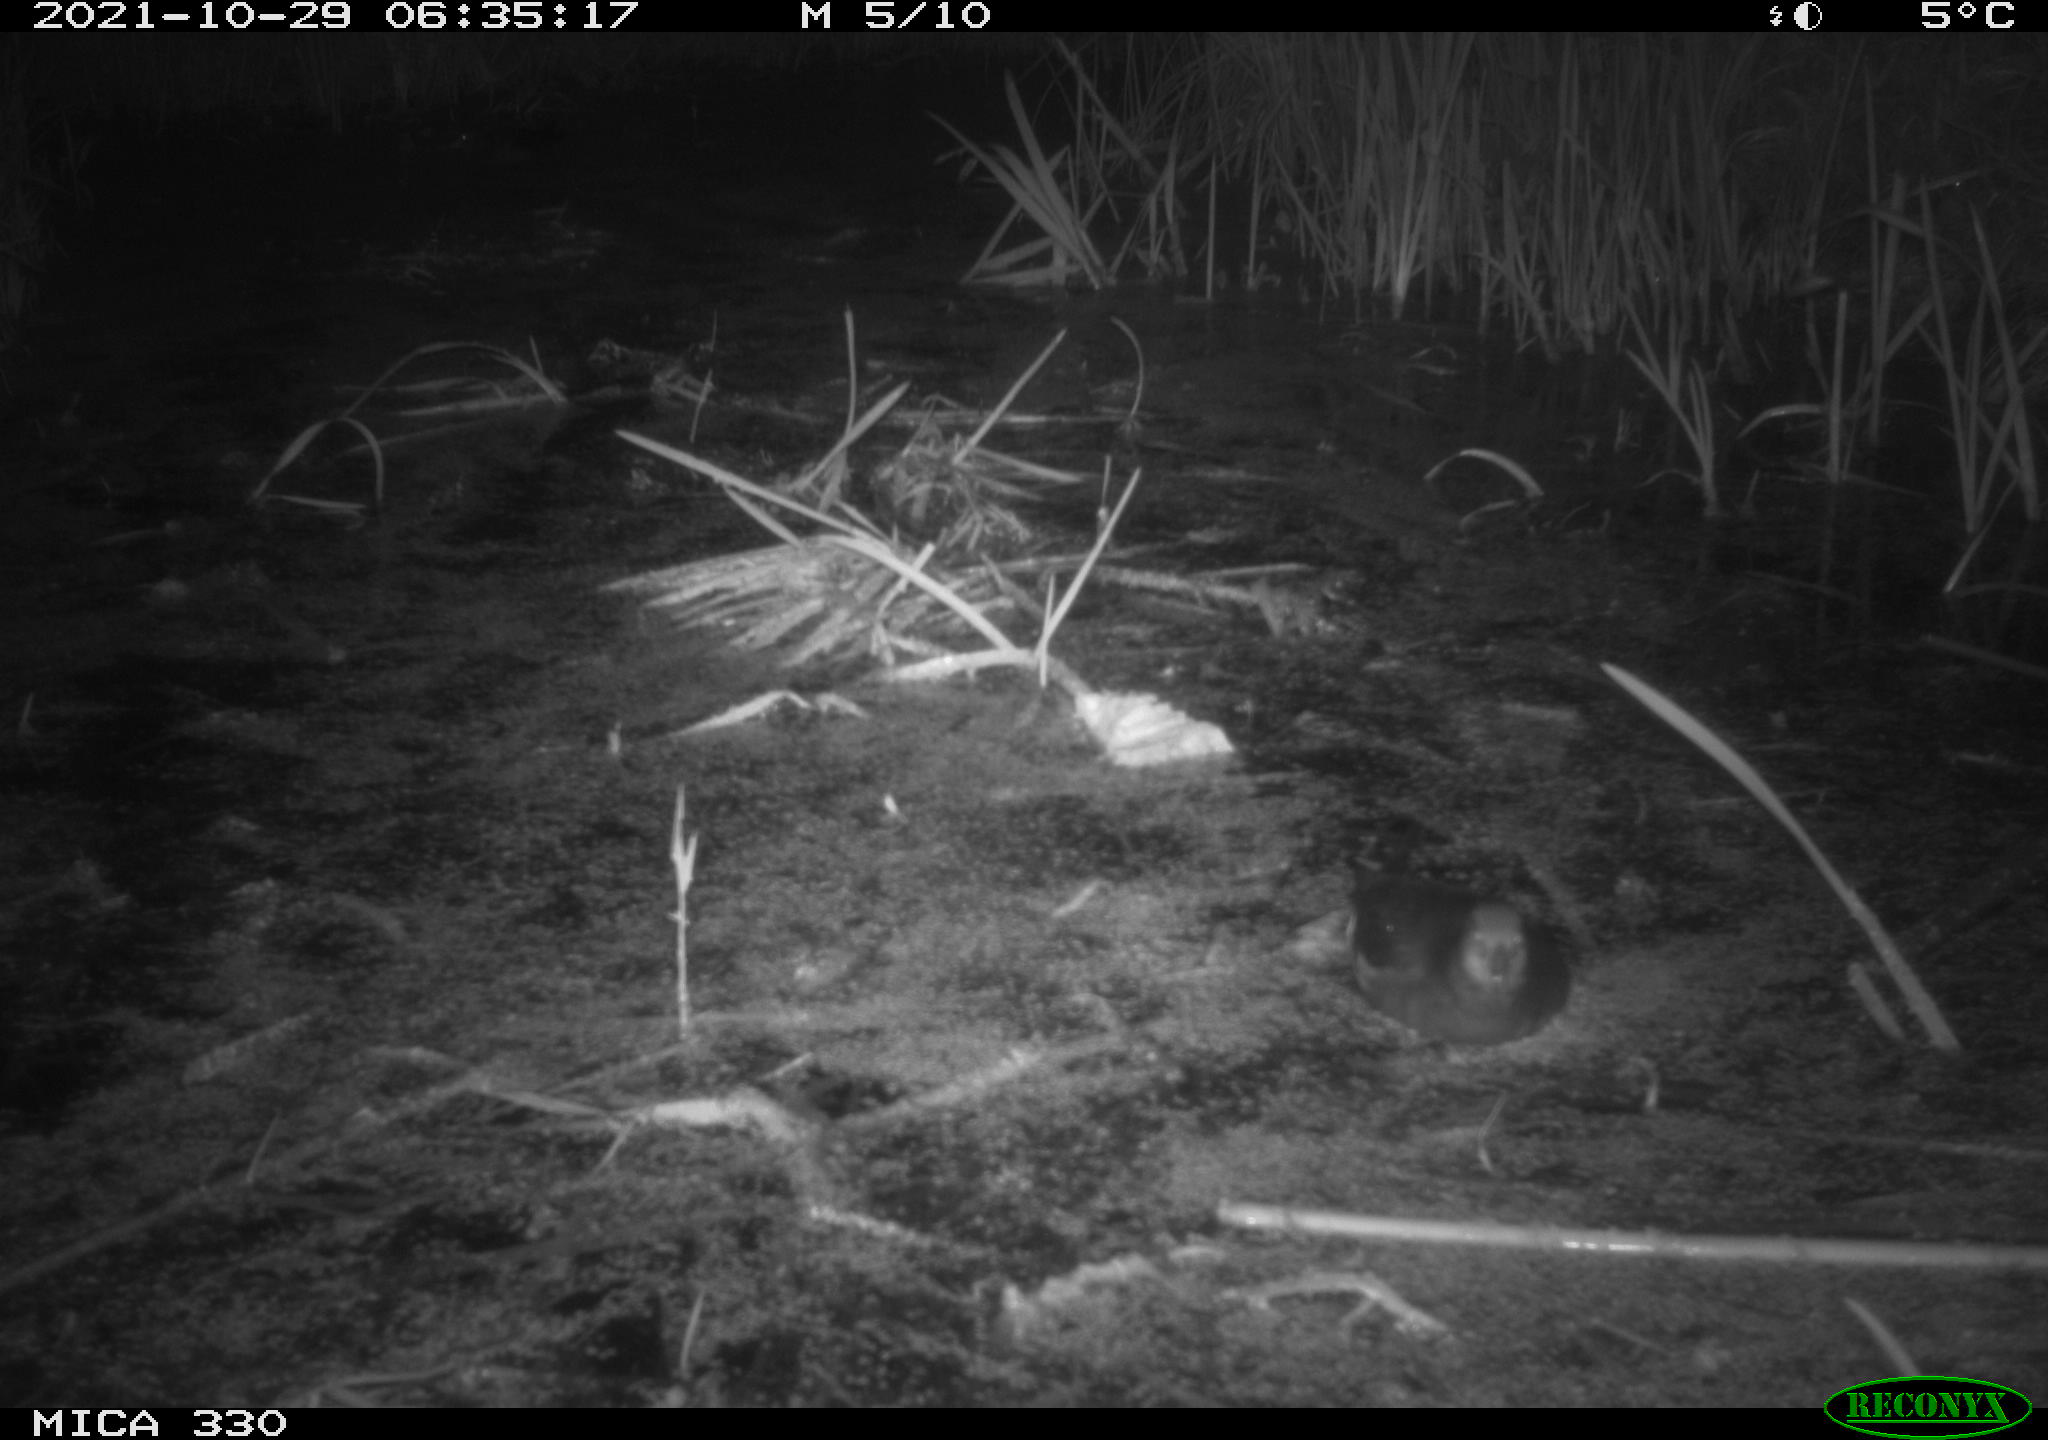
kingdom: Animalia
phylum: Chordata
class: Aves
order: Gruiformes
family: Rallidae
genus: Gallinula
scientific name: Gallinula chloropus
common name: Common moorhen
